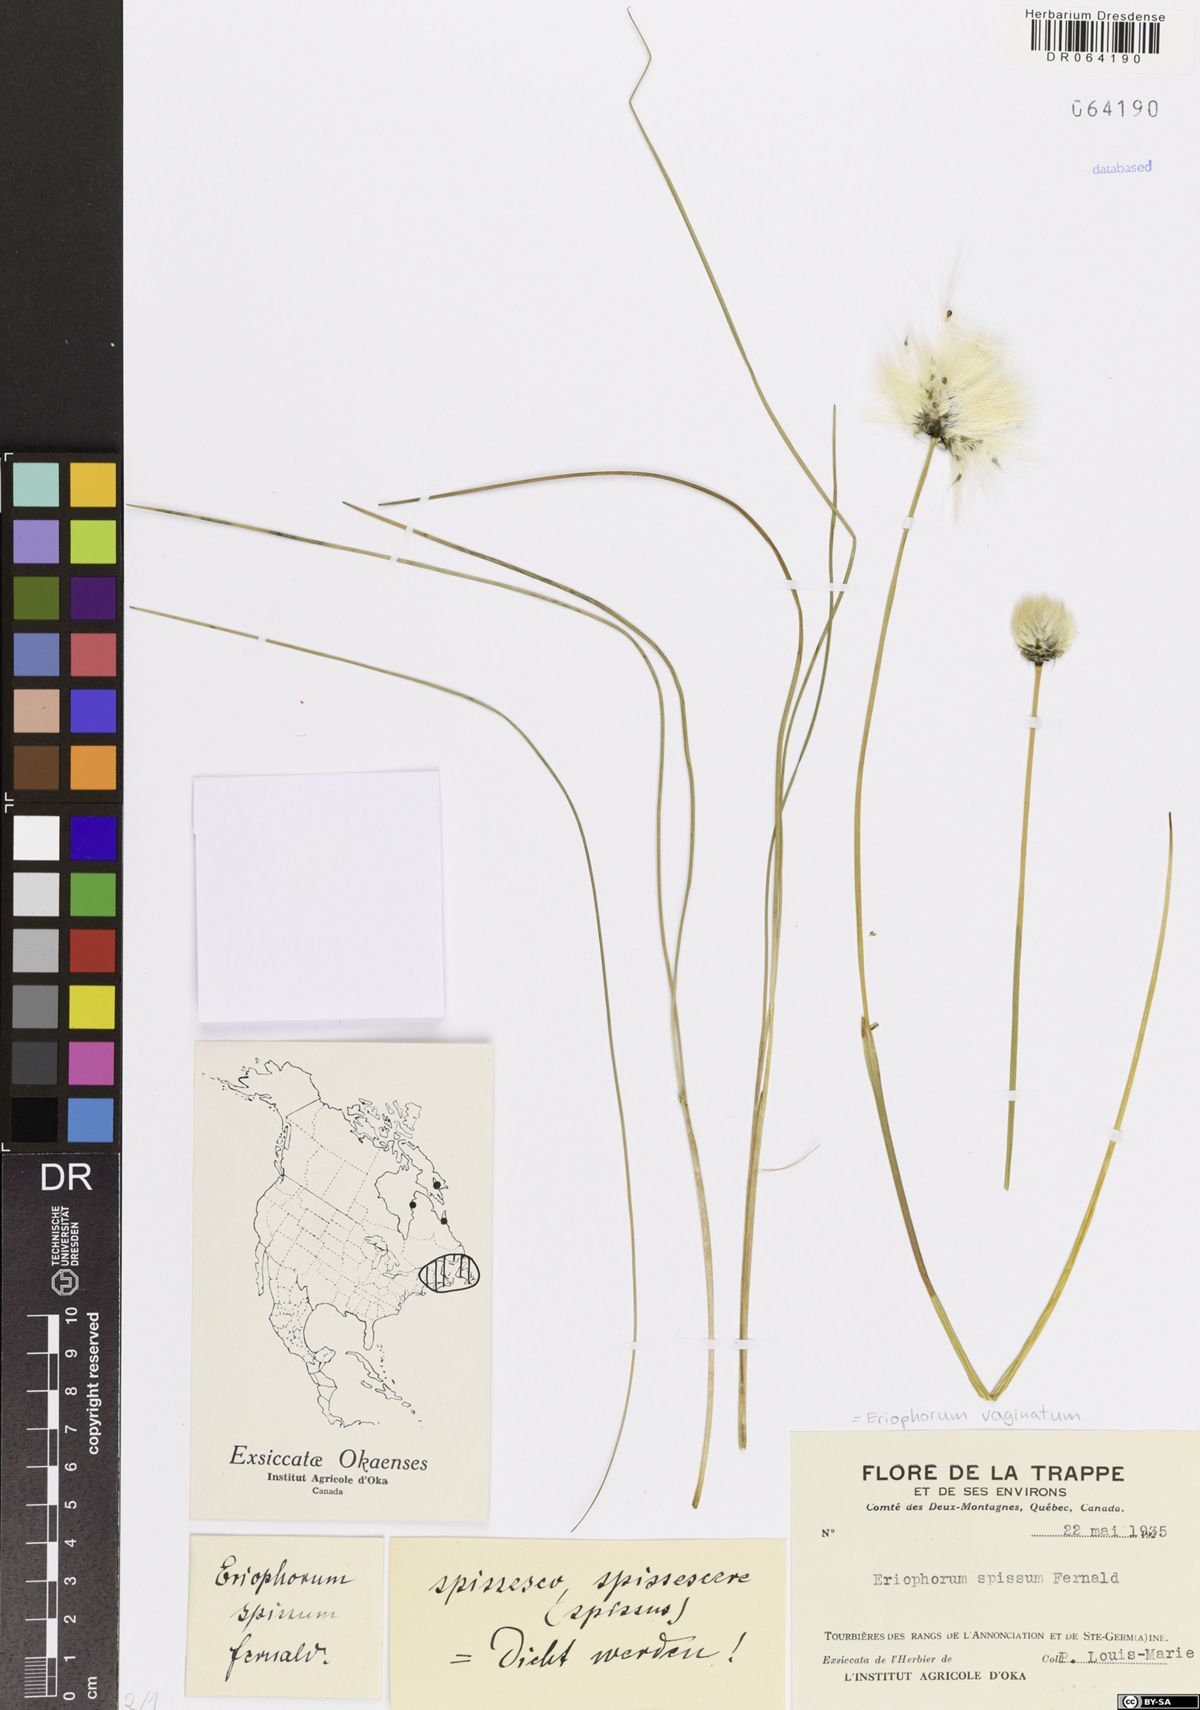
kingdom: Plantae
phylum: Tracheophyta
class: Liliopsida
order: Poales
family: Cyperaceae
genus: Eriophorum
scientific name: Eriophorum vaginatum
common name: Hare's-tail cottongrass
